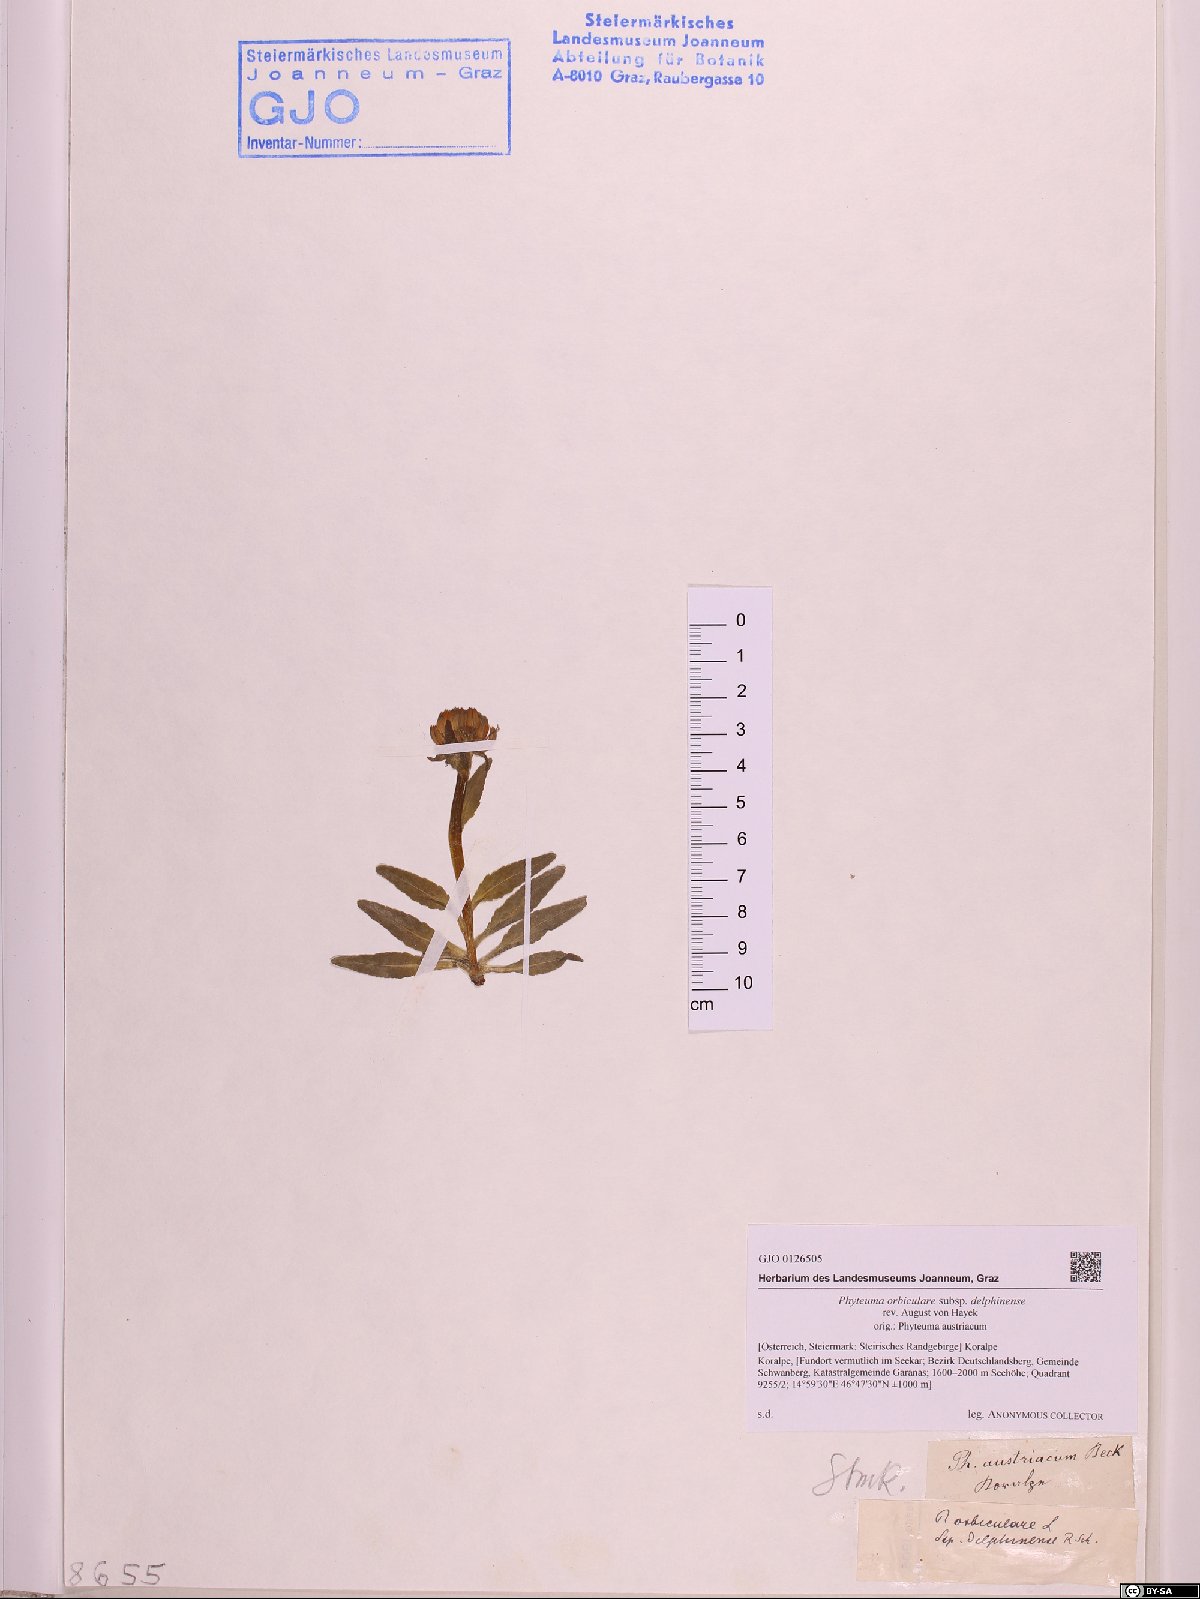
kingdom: Plantae
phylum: Tracheophyta
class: Magnoliopsida
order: Asterales
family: Campanulaceae
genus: Phyteuma
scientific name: Phyteuma orbiculare
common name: Round-headed rampion
